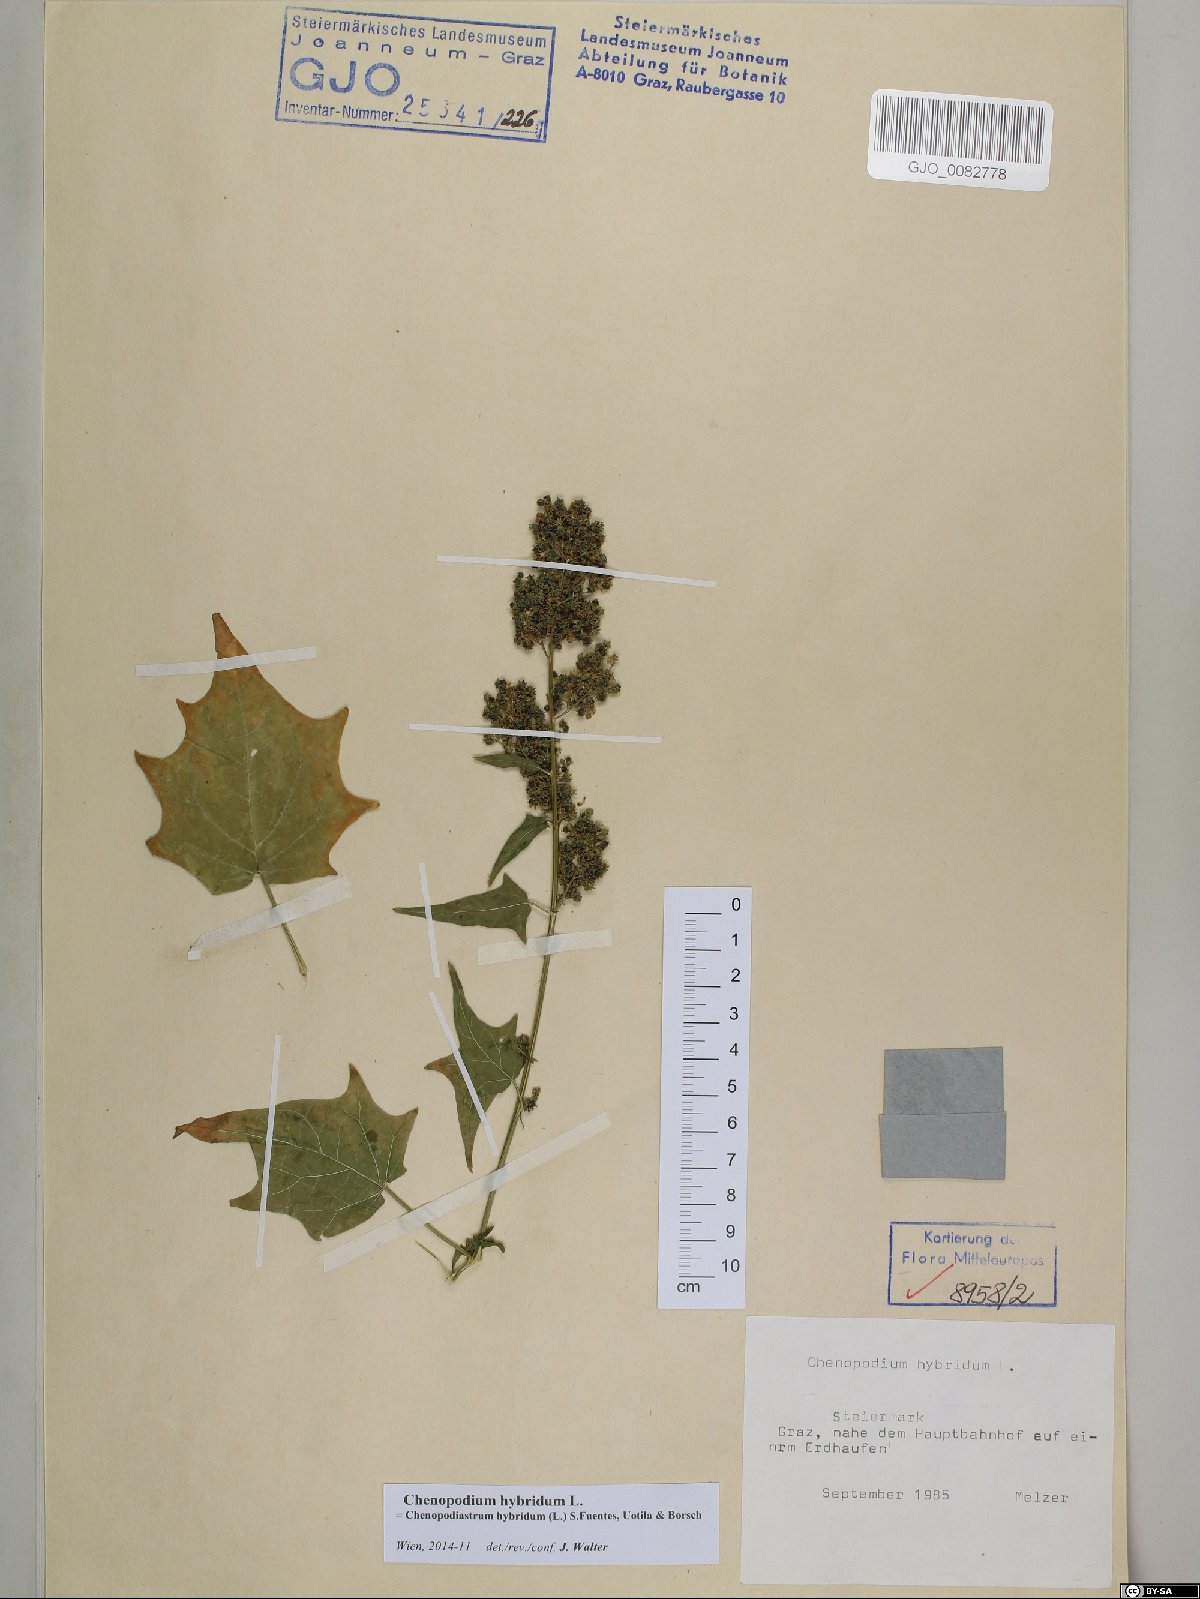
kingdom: Plantae
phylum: Tracheophyta
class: Magnoliopsida
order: Caryophyllales
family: Amaranthaceae
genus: Chenopodiastrum
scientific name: Chenopodiastrum hybridum
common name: Mapleleaf goosefoot
